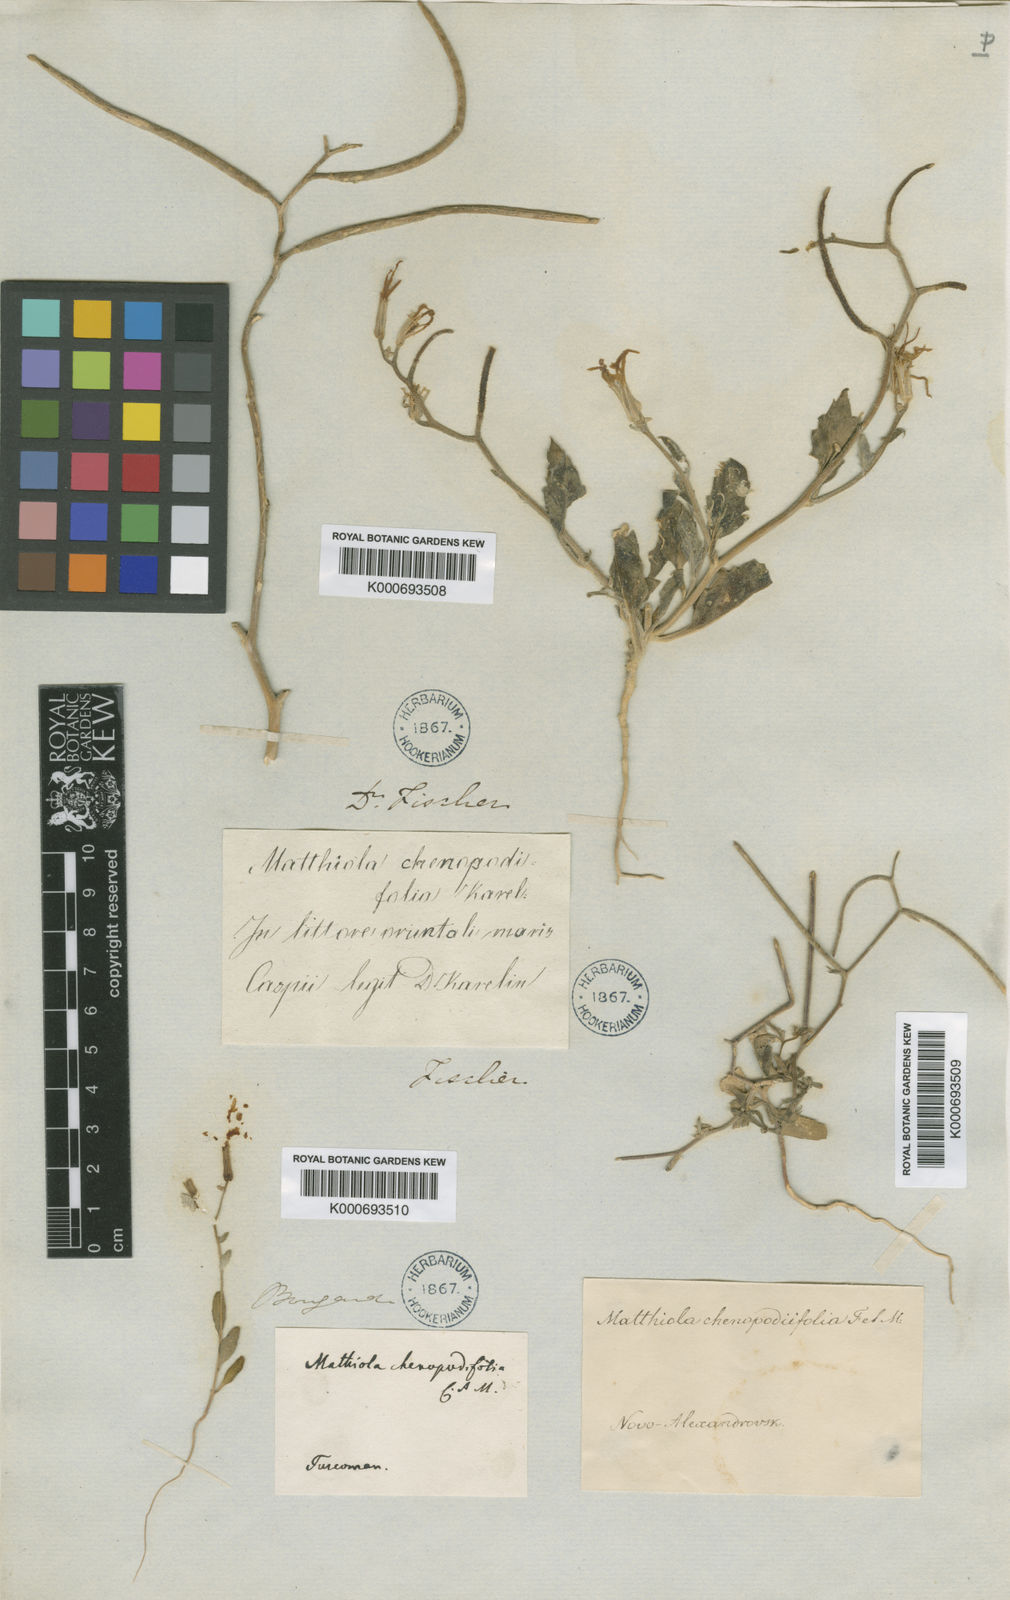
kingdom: Plantae
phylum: Tracheophyta
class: Magnoliopsida
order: Brassicales
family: Brassicaceae
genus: Matthiola
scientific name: Matthiola chenopodiifolia
